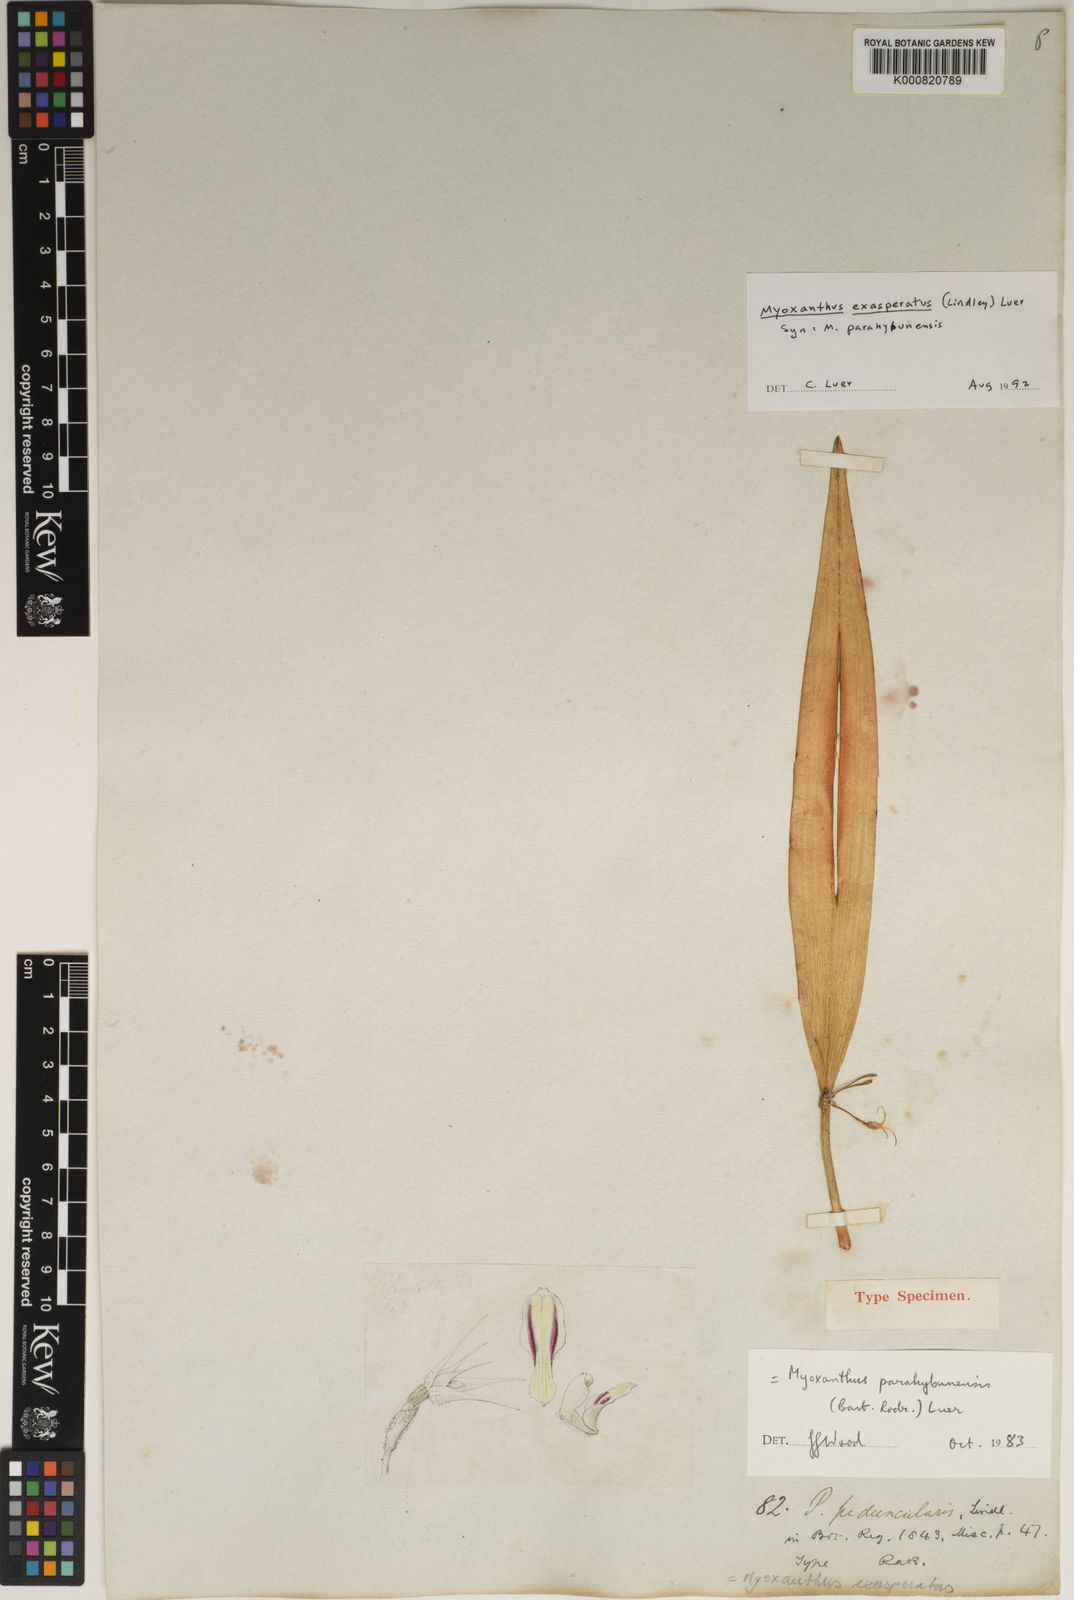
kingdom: Plantae
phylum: Tracheophyta
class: Liliopsida
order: Asparagales
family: Orchidaceae
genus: Myoxanthus
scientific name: Myoxanthus exasperatus
